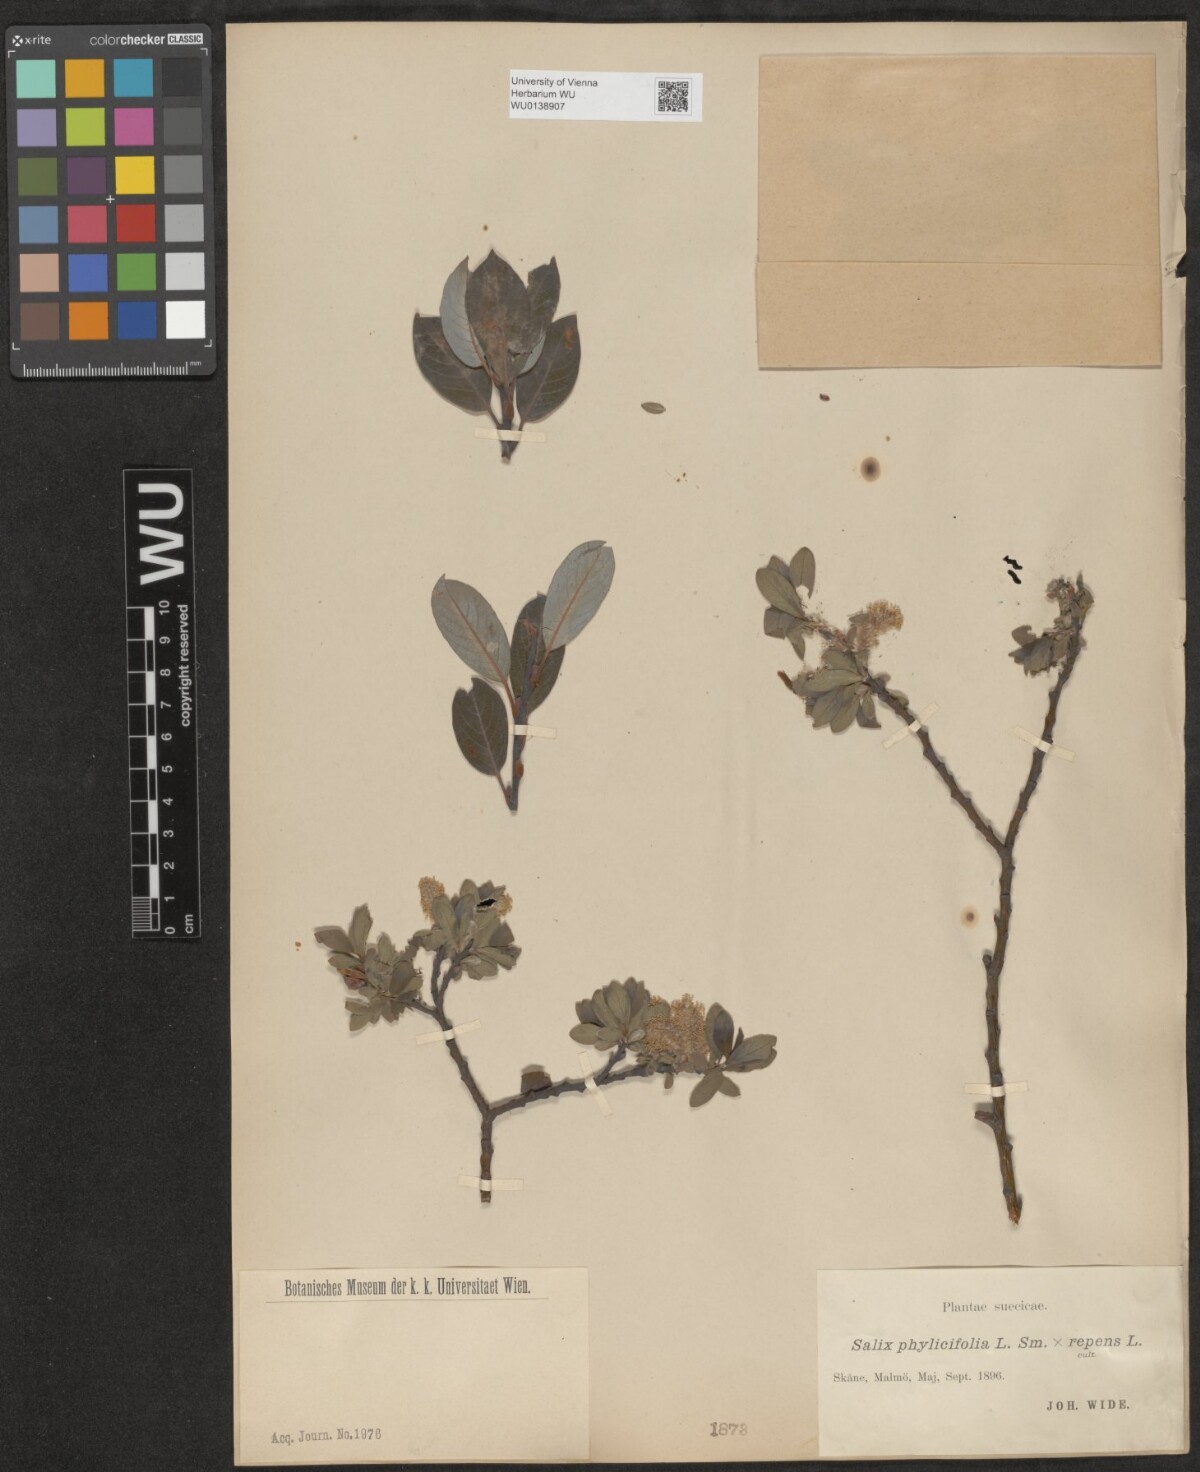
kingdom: Plantae
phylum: Tracheophyta
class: Magnoliopsida
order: Malpighiales
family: Salicaceae
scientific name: Salicaceae
